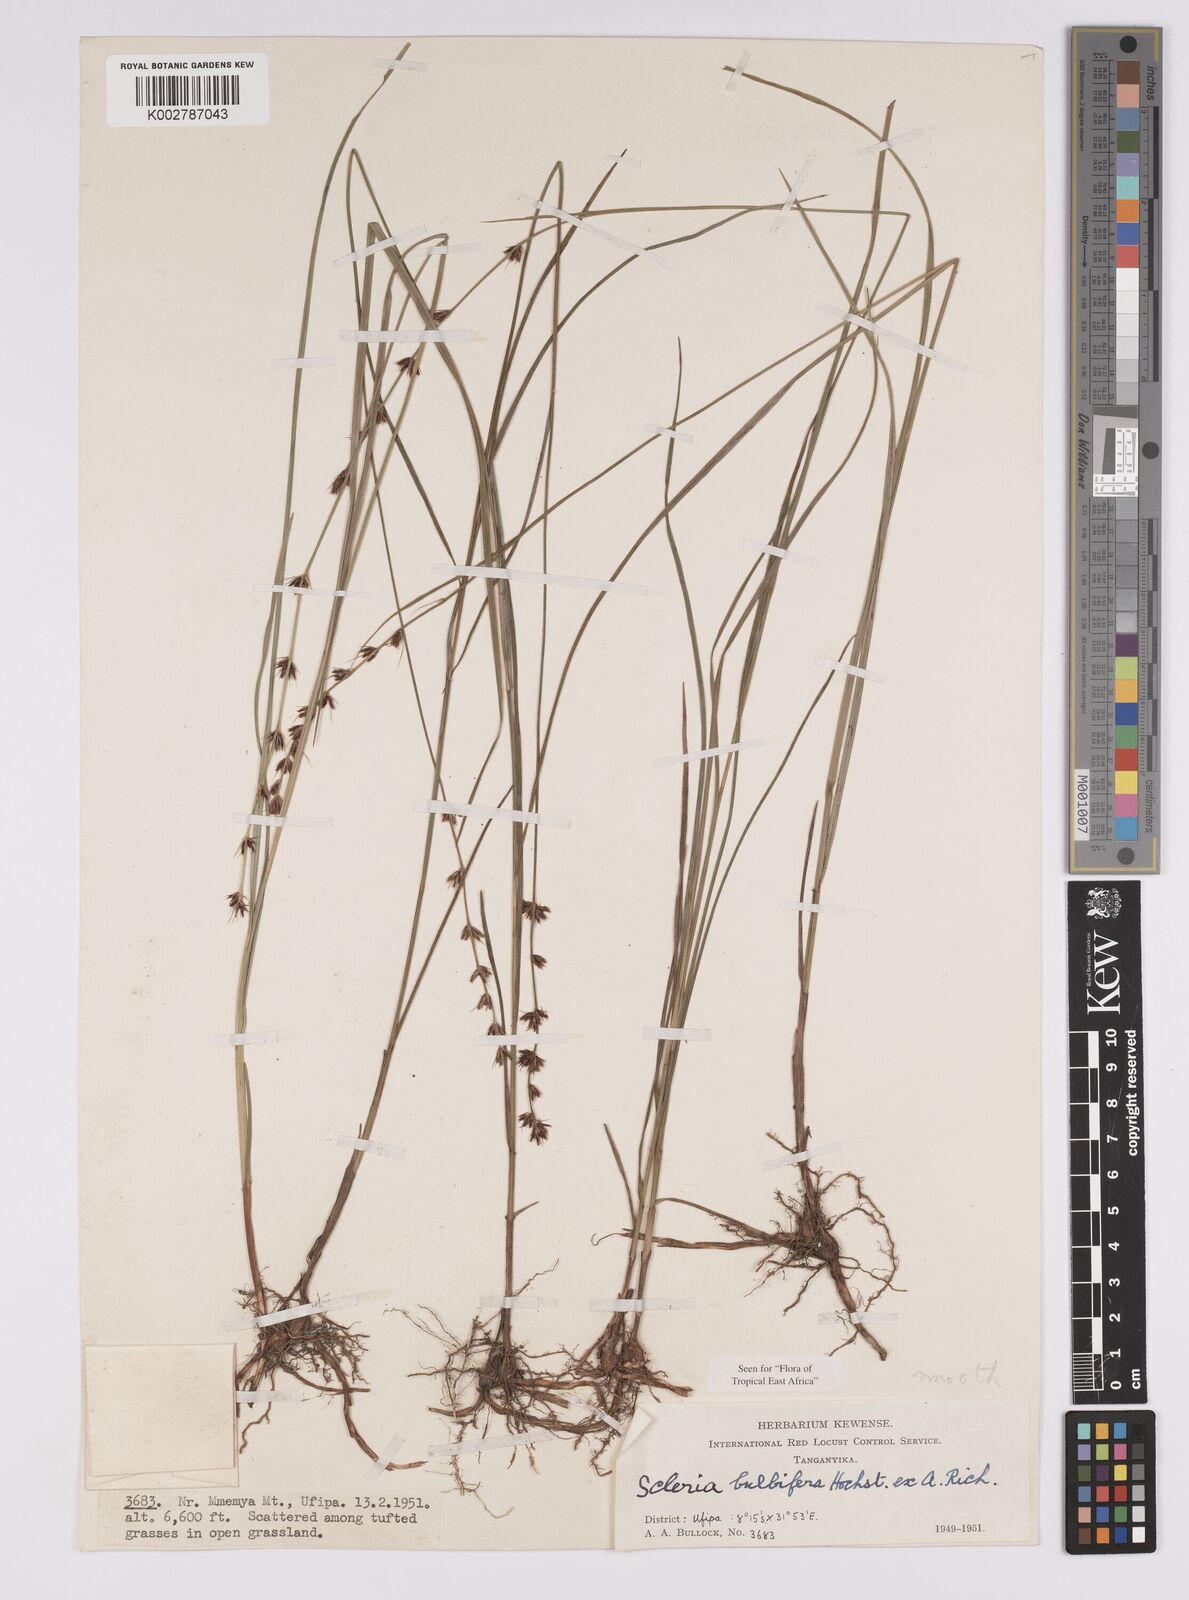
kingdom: Plantae
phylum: Tracheophyta
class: Liliopsida
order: Poales
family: Cyperaceae
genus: Scleria
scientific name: Scleria bulbifera
